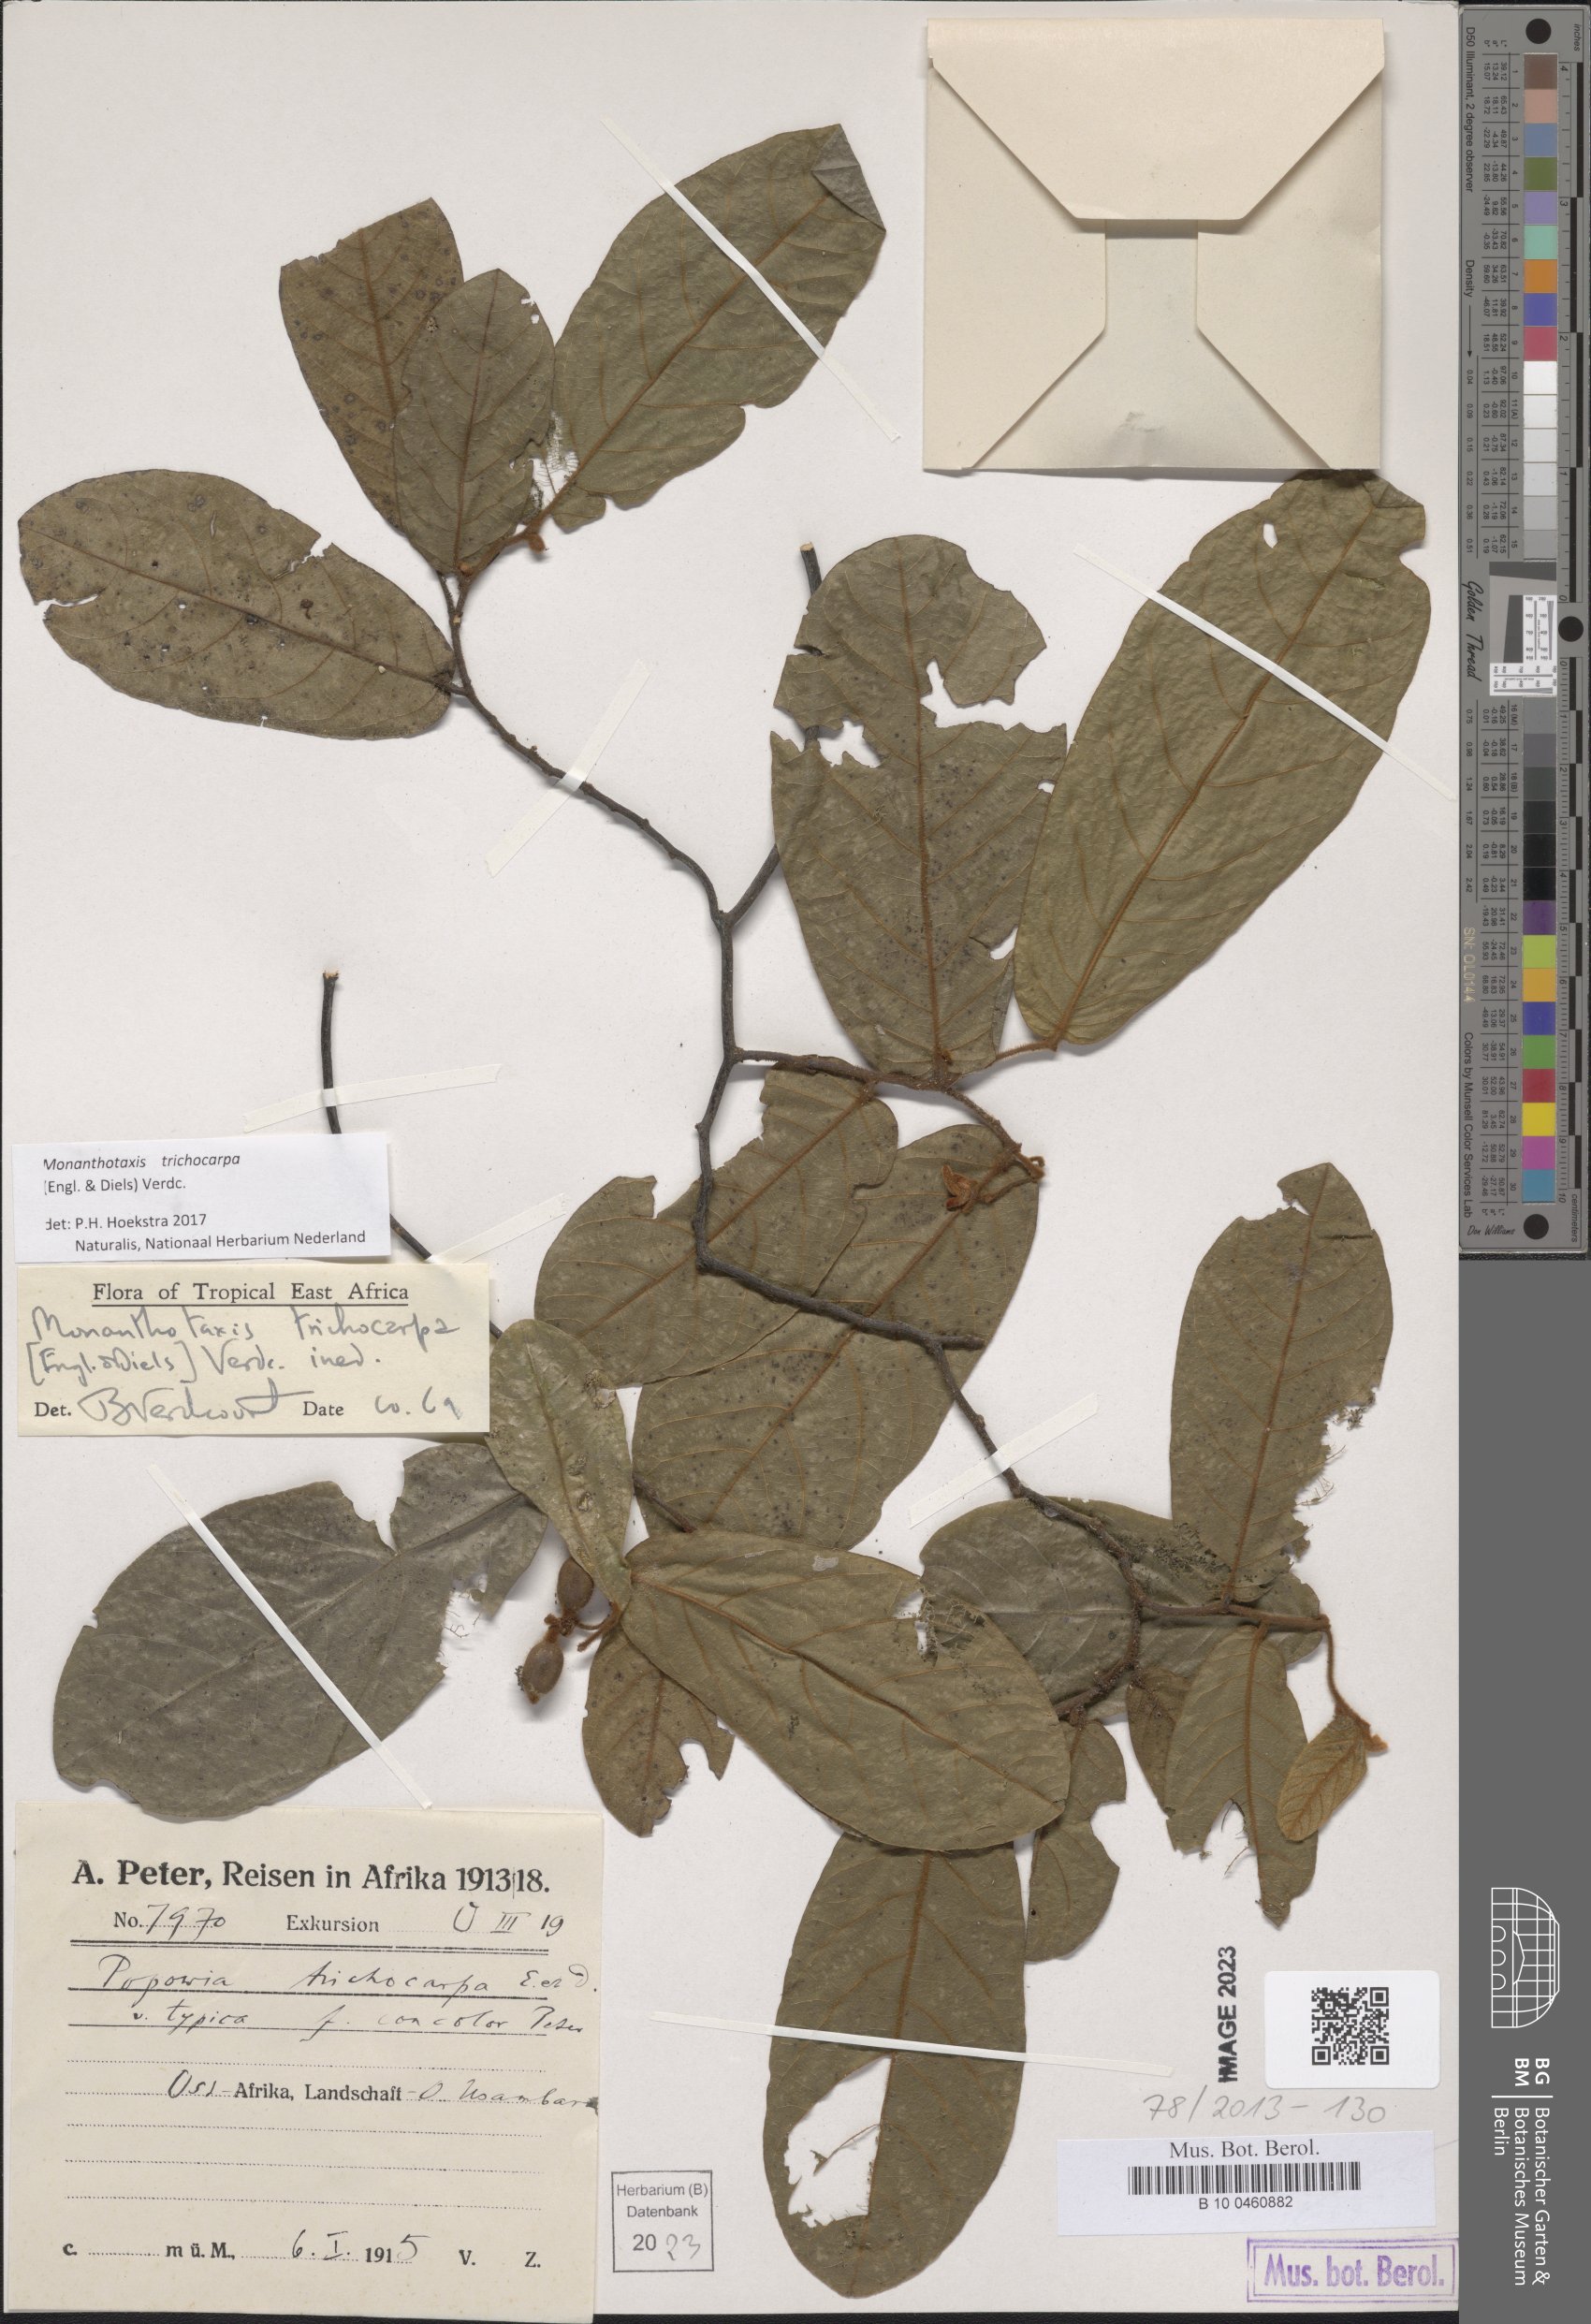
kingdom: Plantae
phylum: Tracheophyta
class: Magnoliopsida
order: Magnoliales
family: Annonaceae
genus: Monanthotaxis
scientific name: Monanthotaxis trichocarpa
